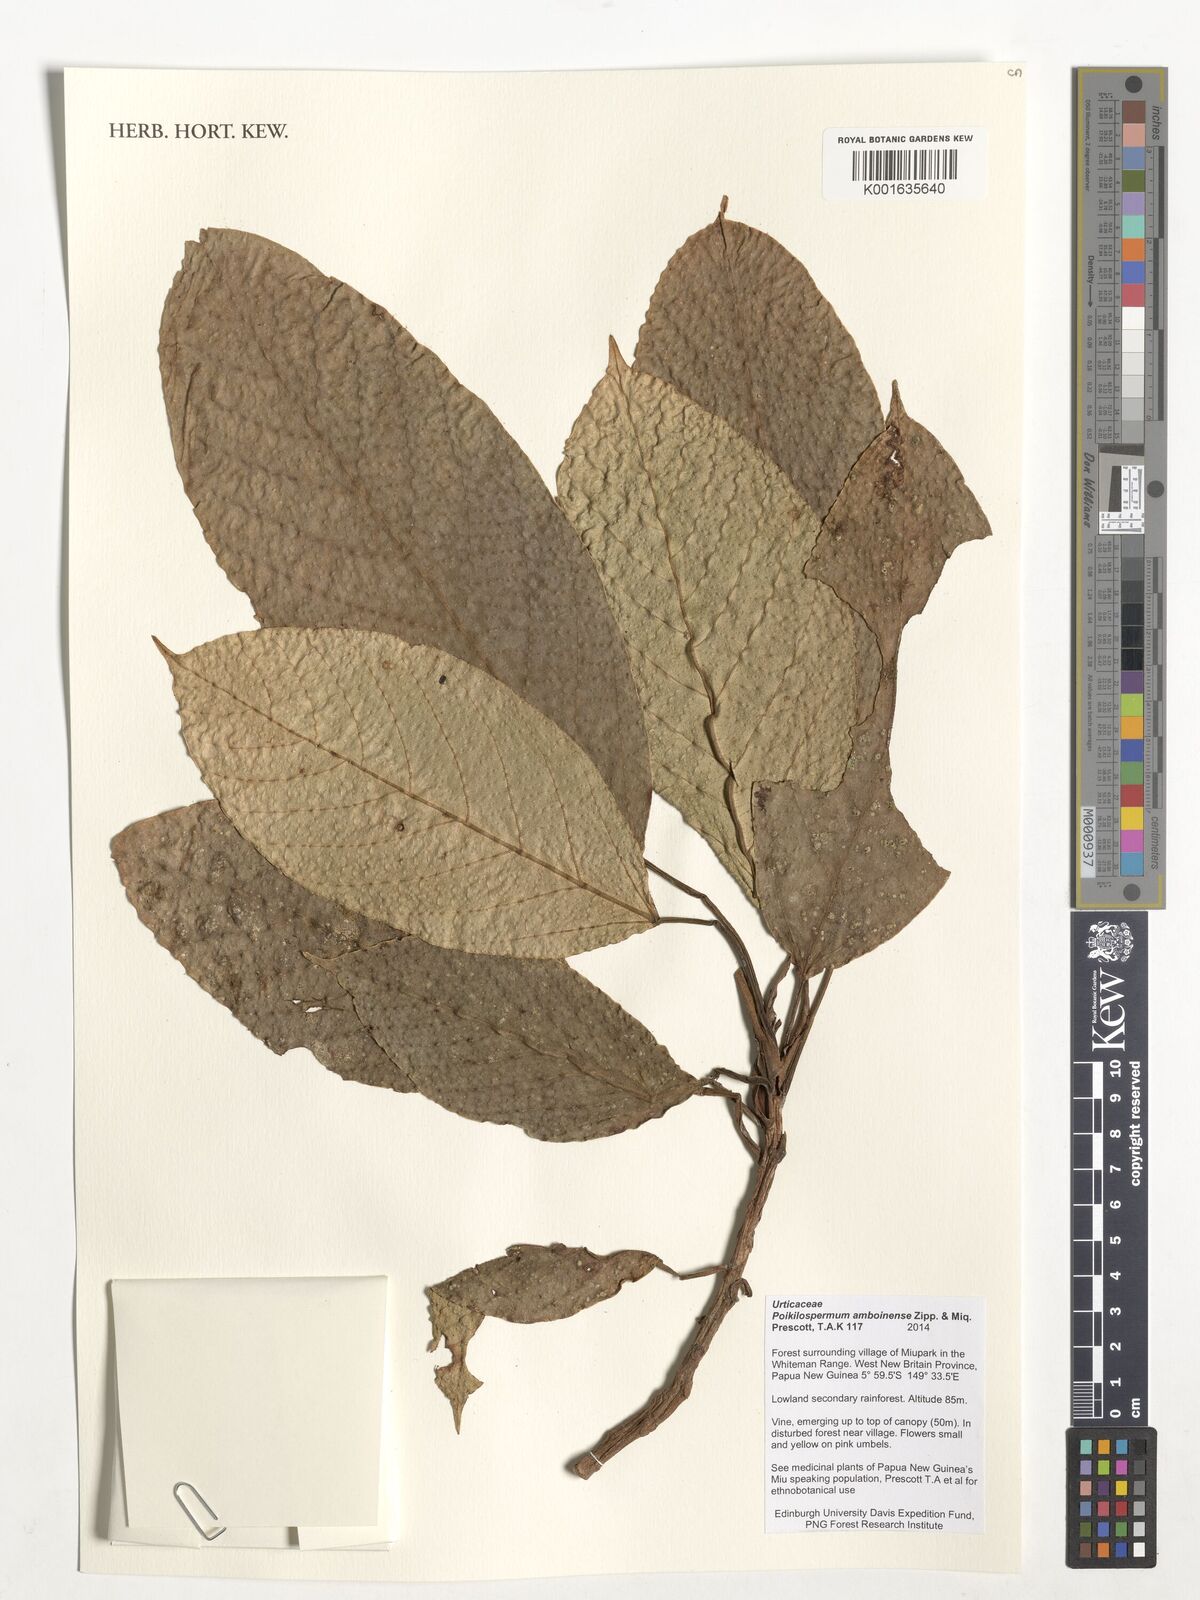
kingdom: Plantae
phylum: Tracheophyta
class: Magnoliopsida
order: Rosales
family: Urticaceae
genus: Poikilospermum
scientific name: Poikilospermum amboinense
